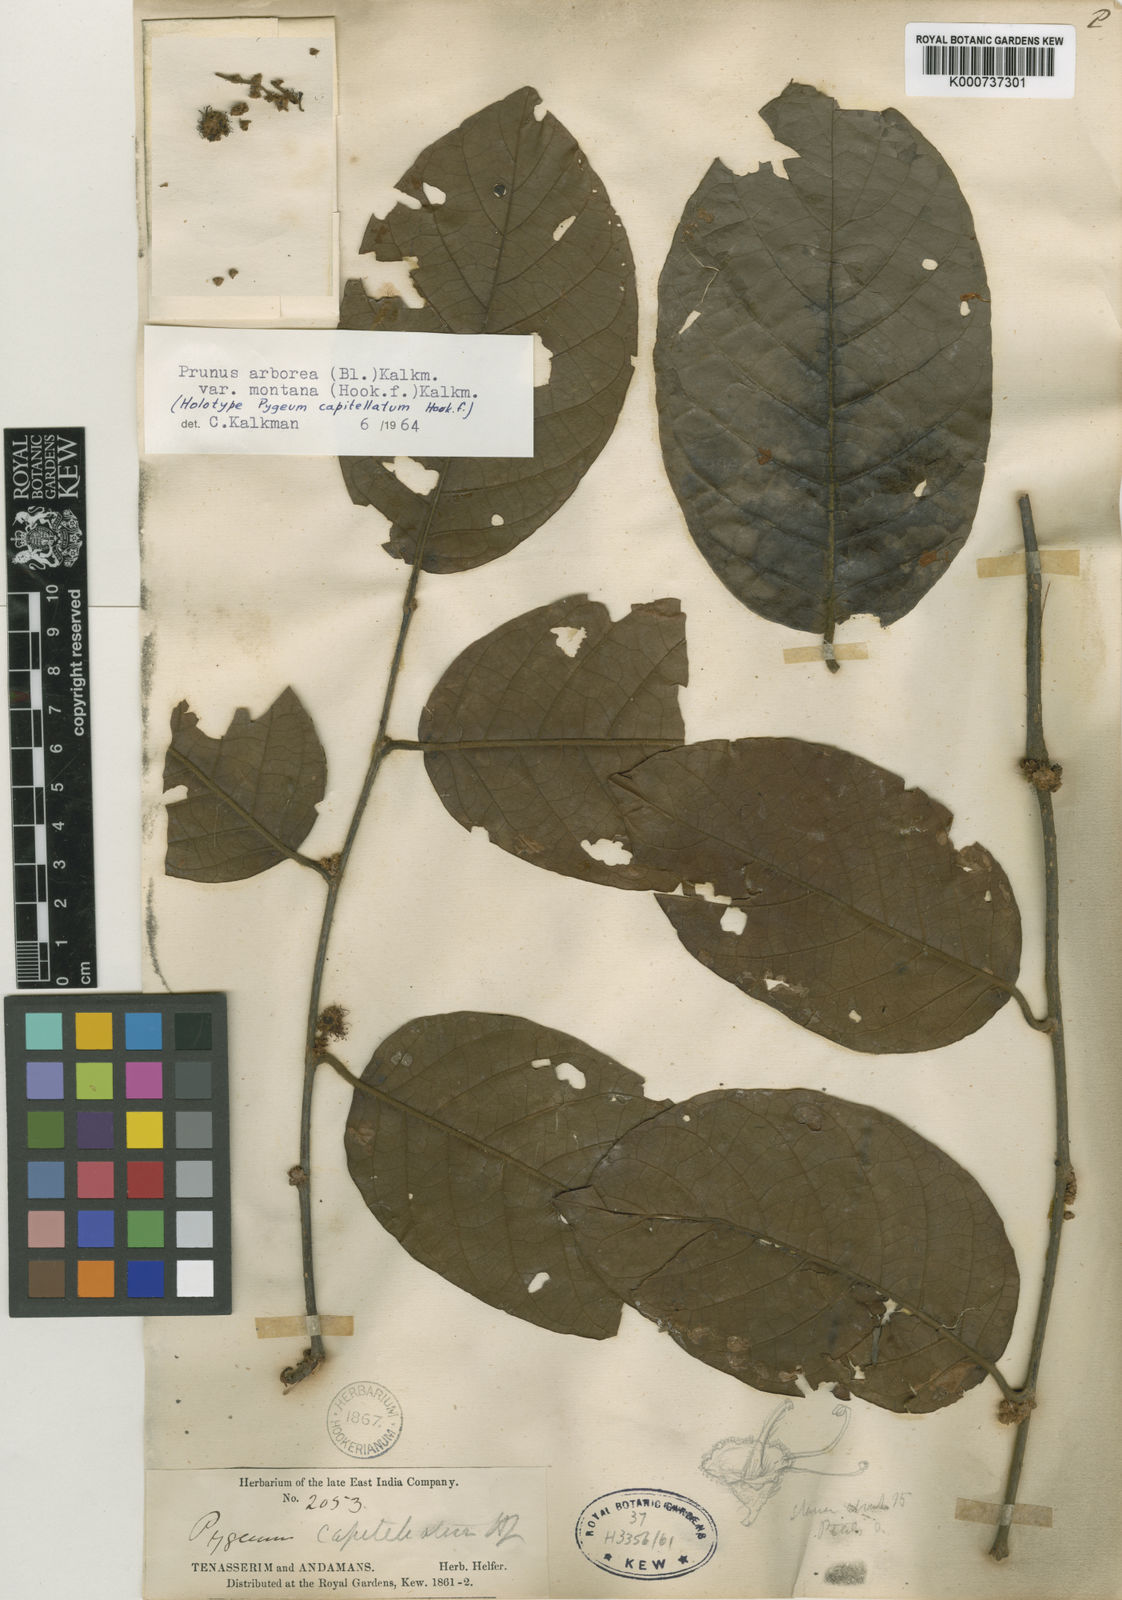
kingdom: Plantae
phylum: Tracheophyta
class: Magnoliopsida
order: Rosales
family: Rosaceae
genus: Prunus
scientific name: Prunus arborea
